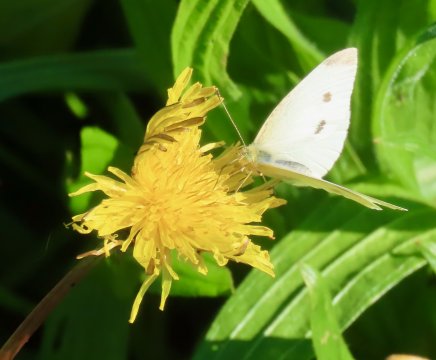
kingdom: Animalia
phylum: Arthropoda
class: Insecta
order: Lepidoptera
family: Pieridae
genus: Pieris
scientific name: Pieris rapae
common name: Cabbage White
